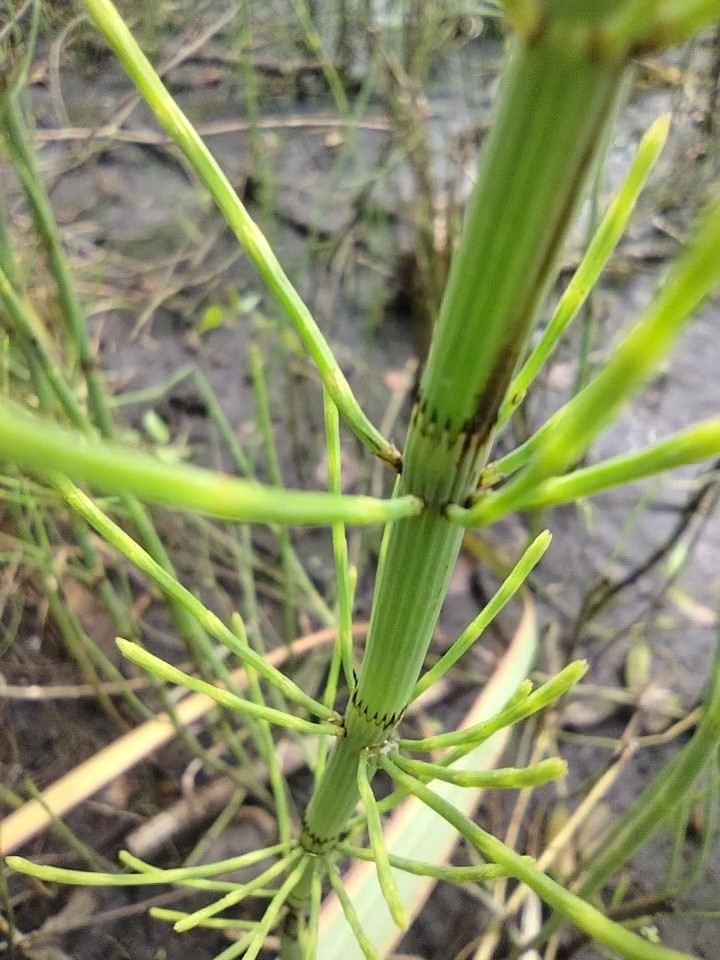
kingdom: Plantae
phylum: Tracheophyta
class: Polypodiopsida
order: Equisetales
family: Equisetaceae
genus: Equisetum
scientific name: Equisetum fluviatile
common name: Dynd-padderok
